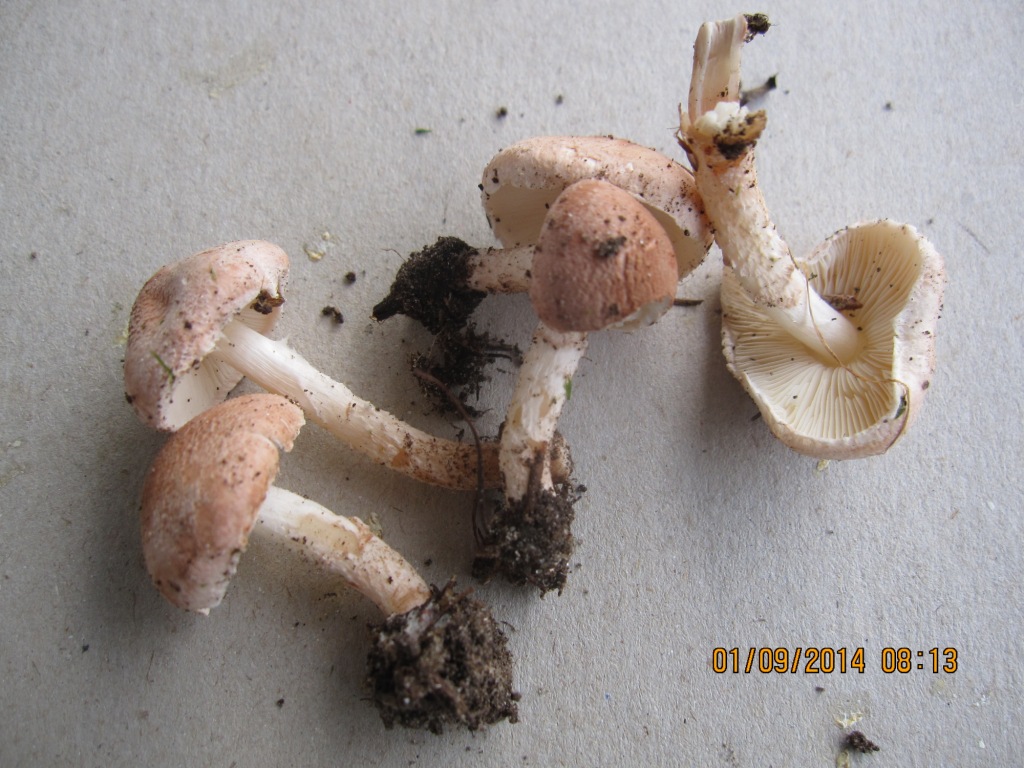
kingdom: Fungi
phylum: Basidiomycota
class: Agaricomycetes
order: Agaricales
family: Agaricaceae
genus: Lepiota
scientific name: Lepiota subincarnata
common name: kødfarvet parasolhat
